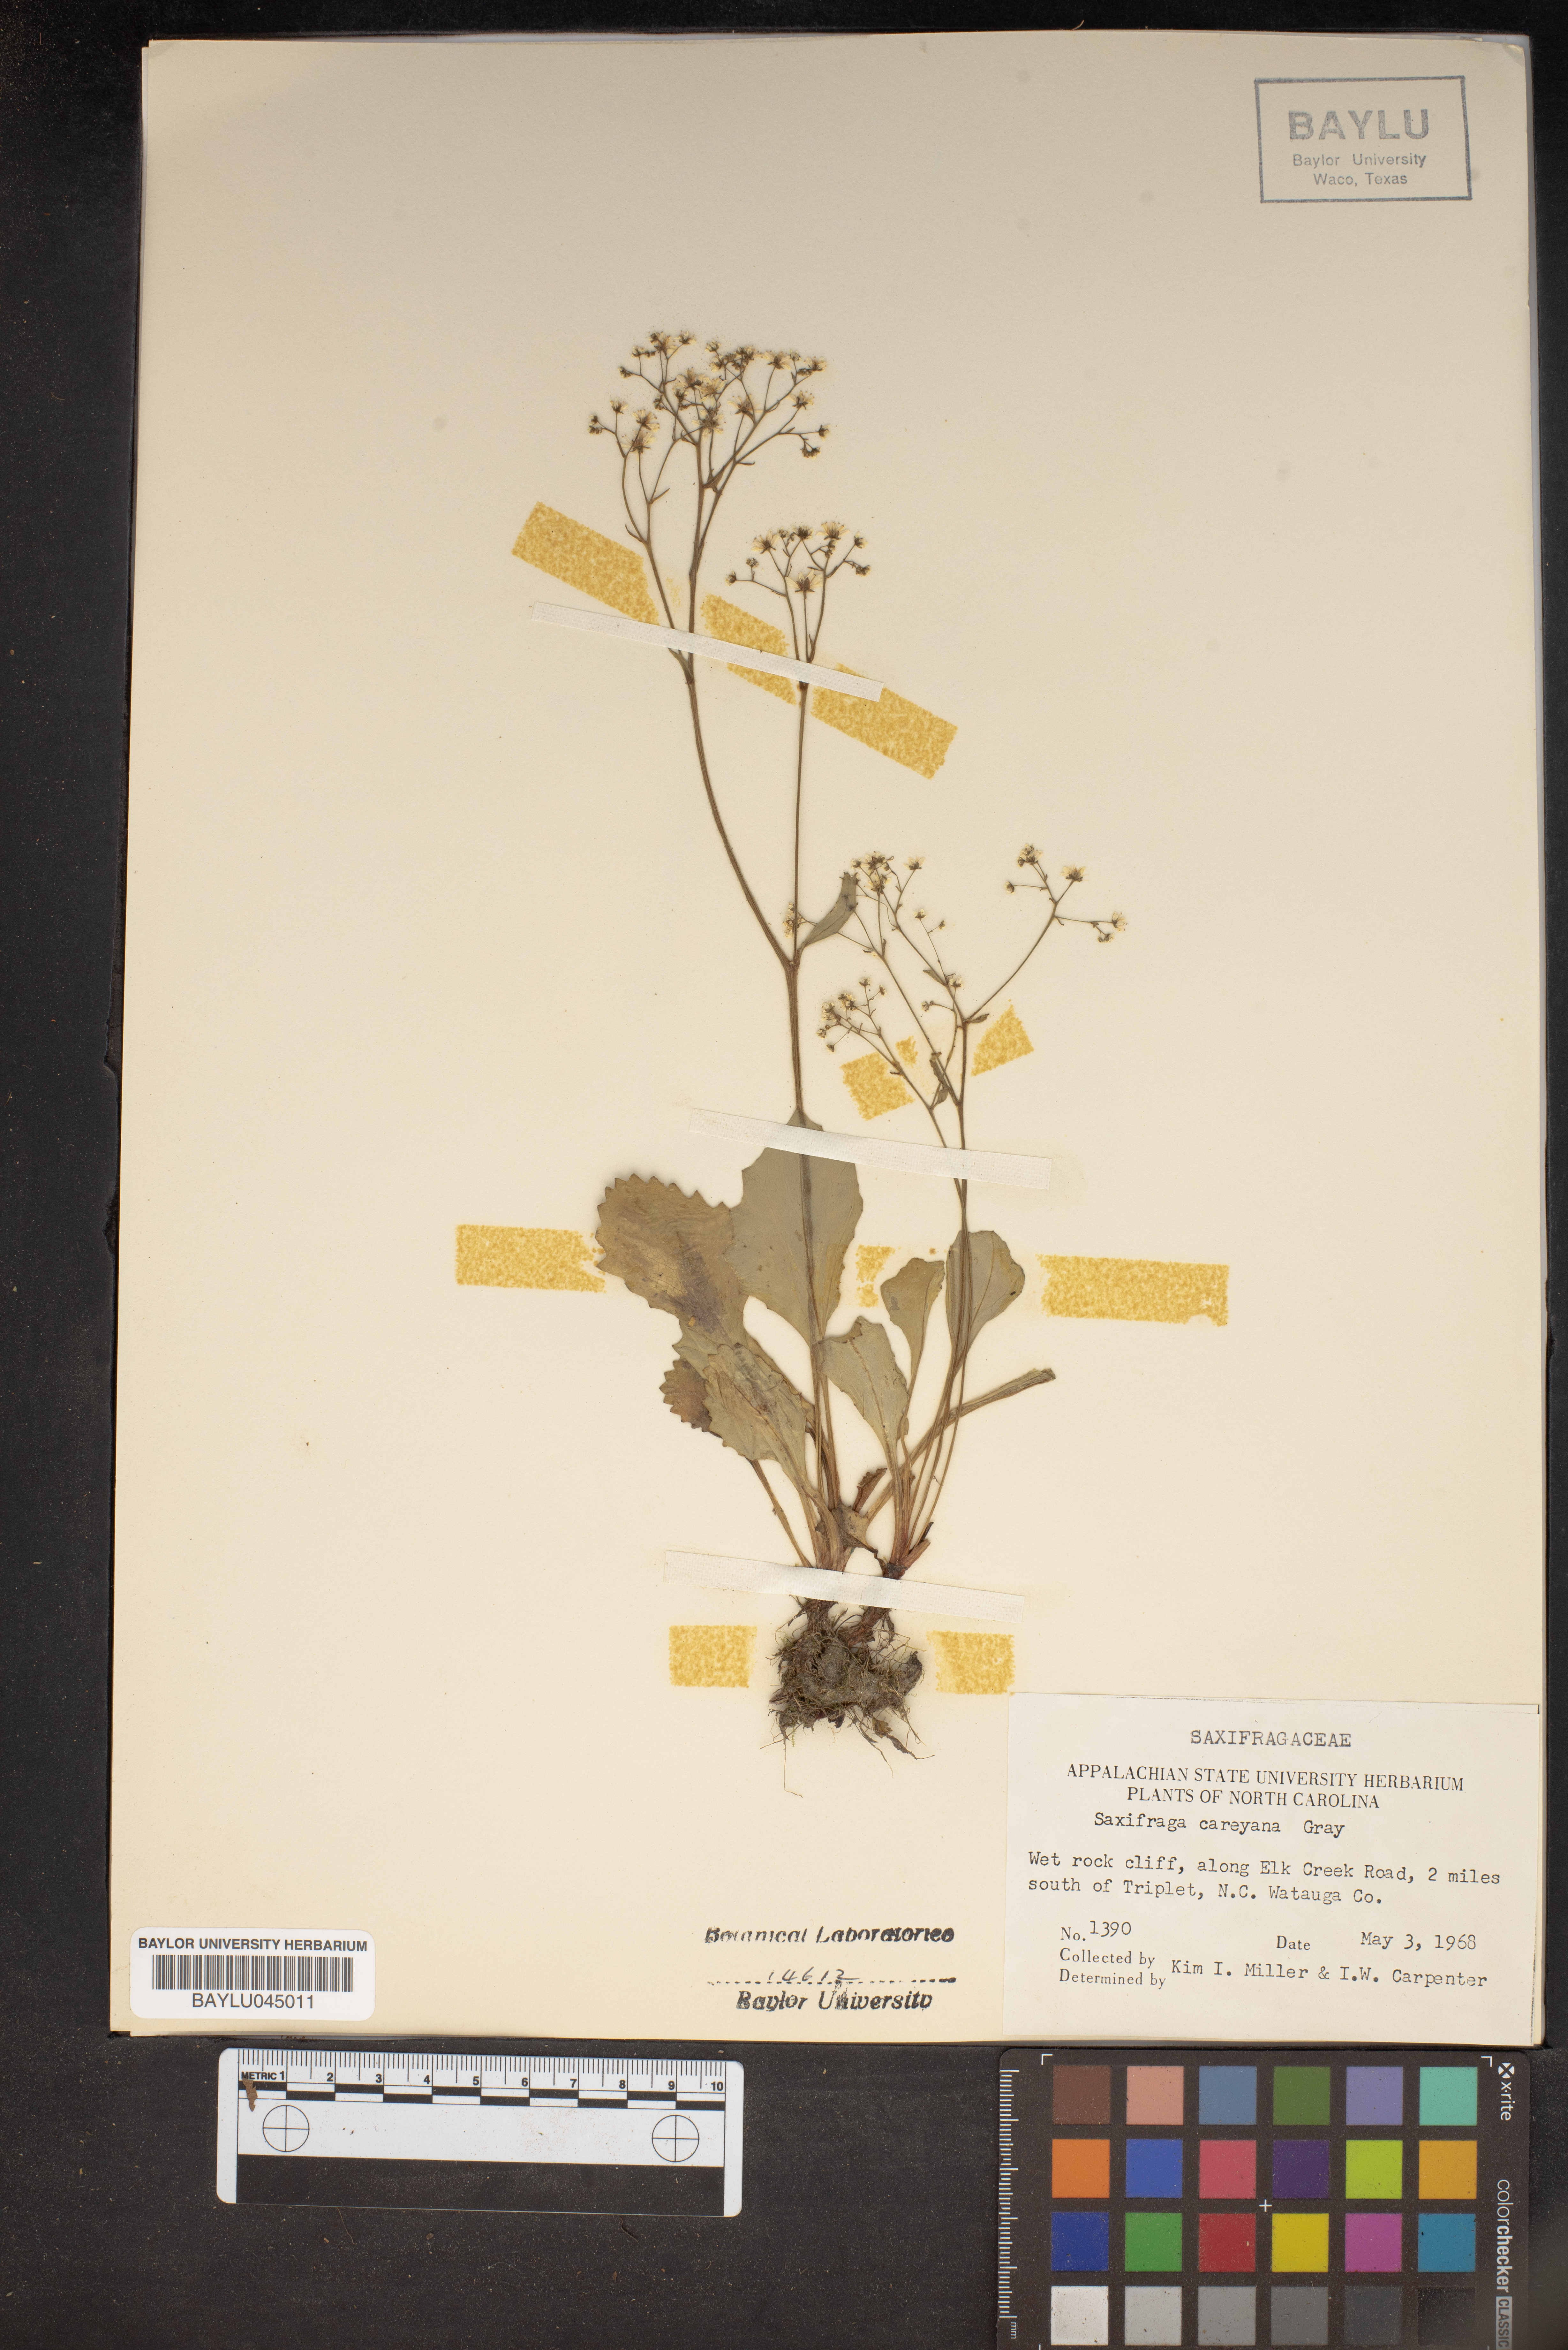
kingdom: Plantae
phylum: Tracheophyta
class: Magnoliopsida
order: Saxifragales
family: Saxifragaceae
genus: Micranthes
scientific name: Micranthes careyana
